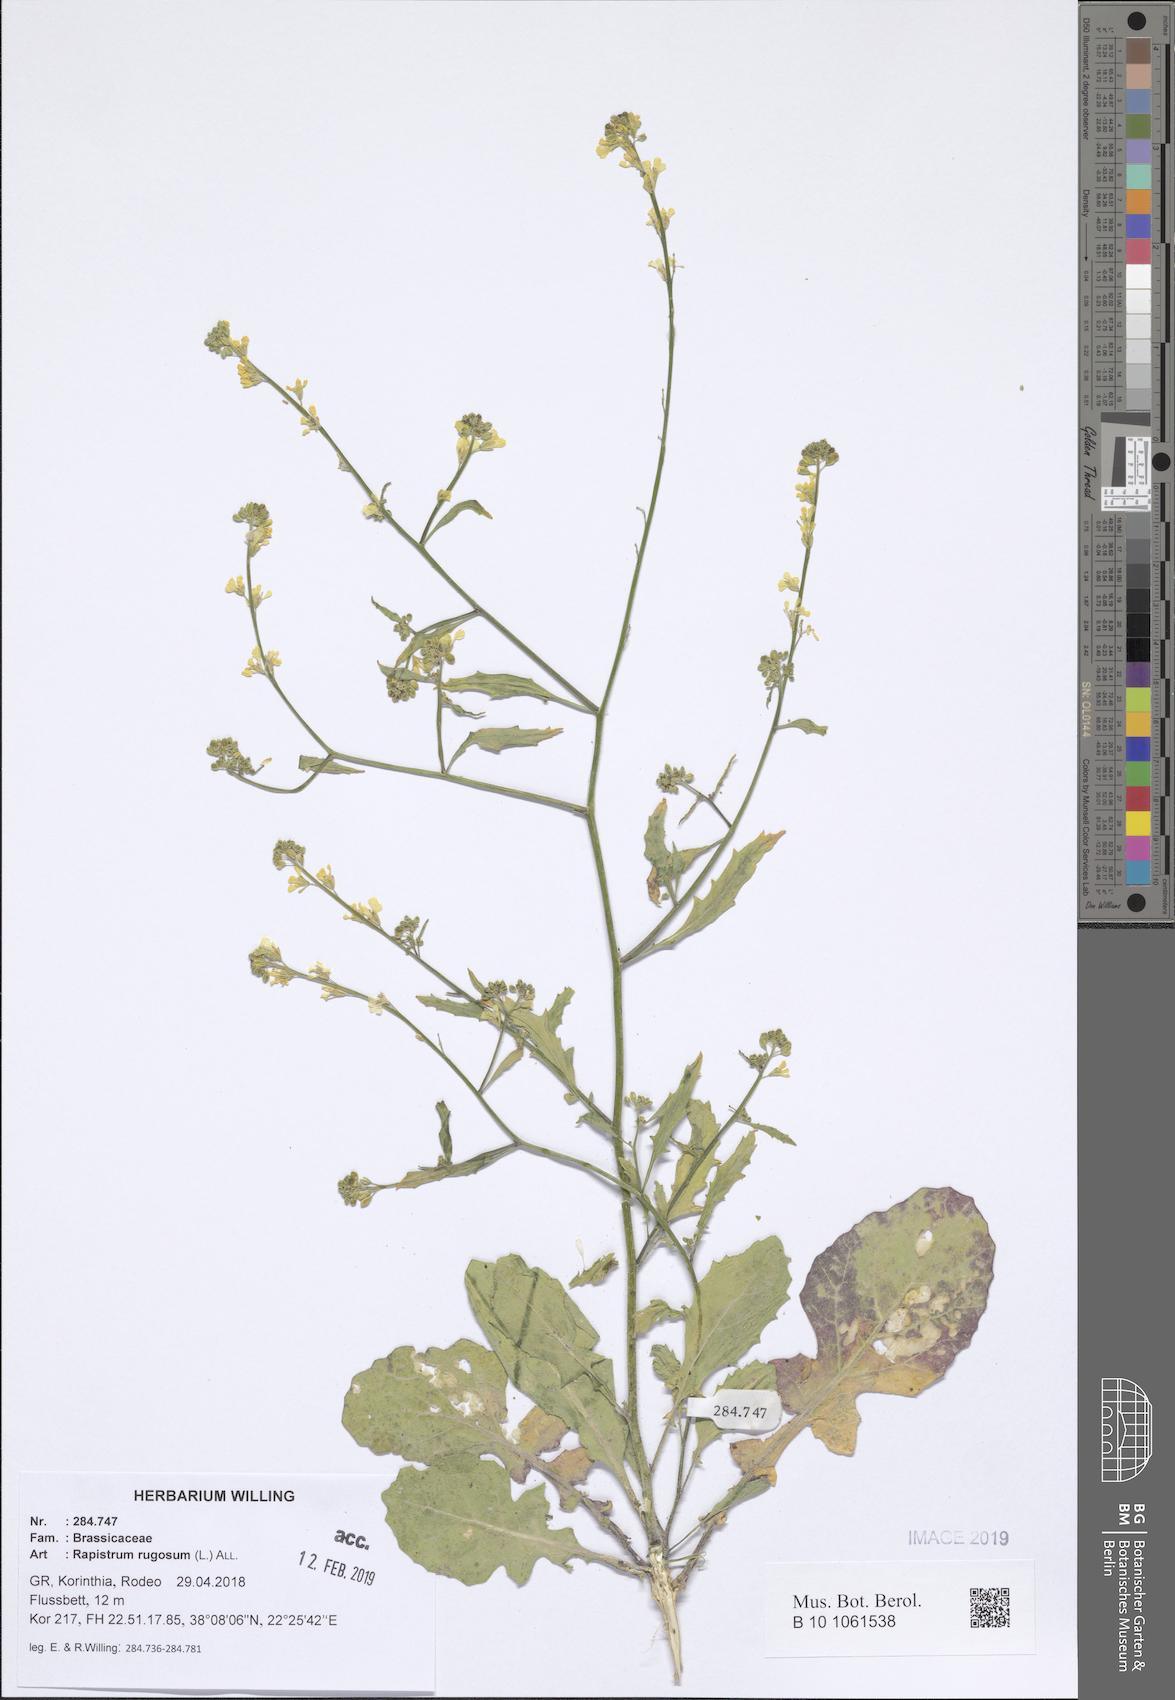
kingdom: Plantae
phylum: Tracheophyta
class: Magnoliopsida
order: Brassicales
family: Brassicaceae
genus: Rapistrum
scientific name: Rapistrum rugosum
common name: Annual bastardcabbage
